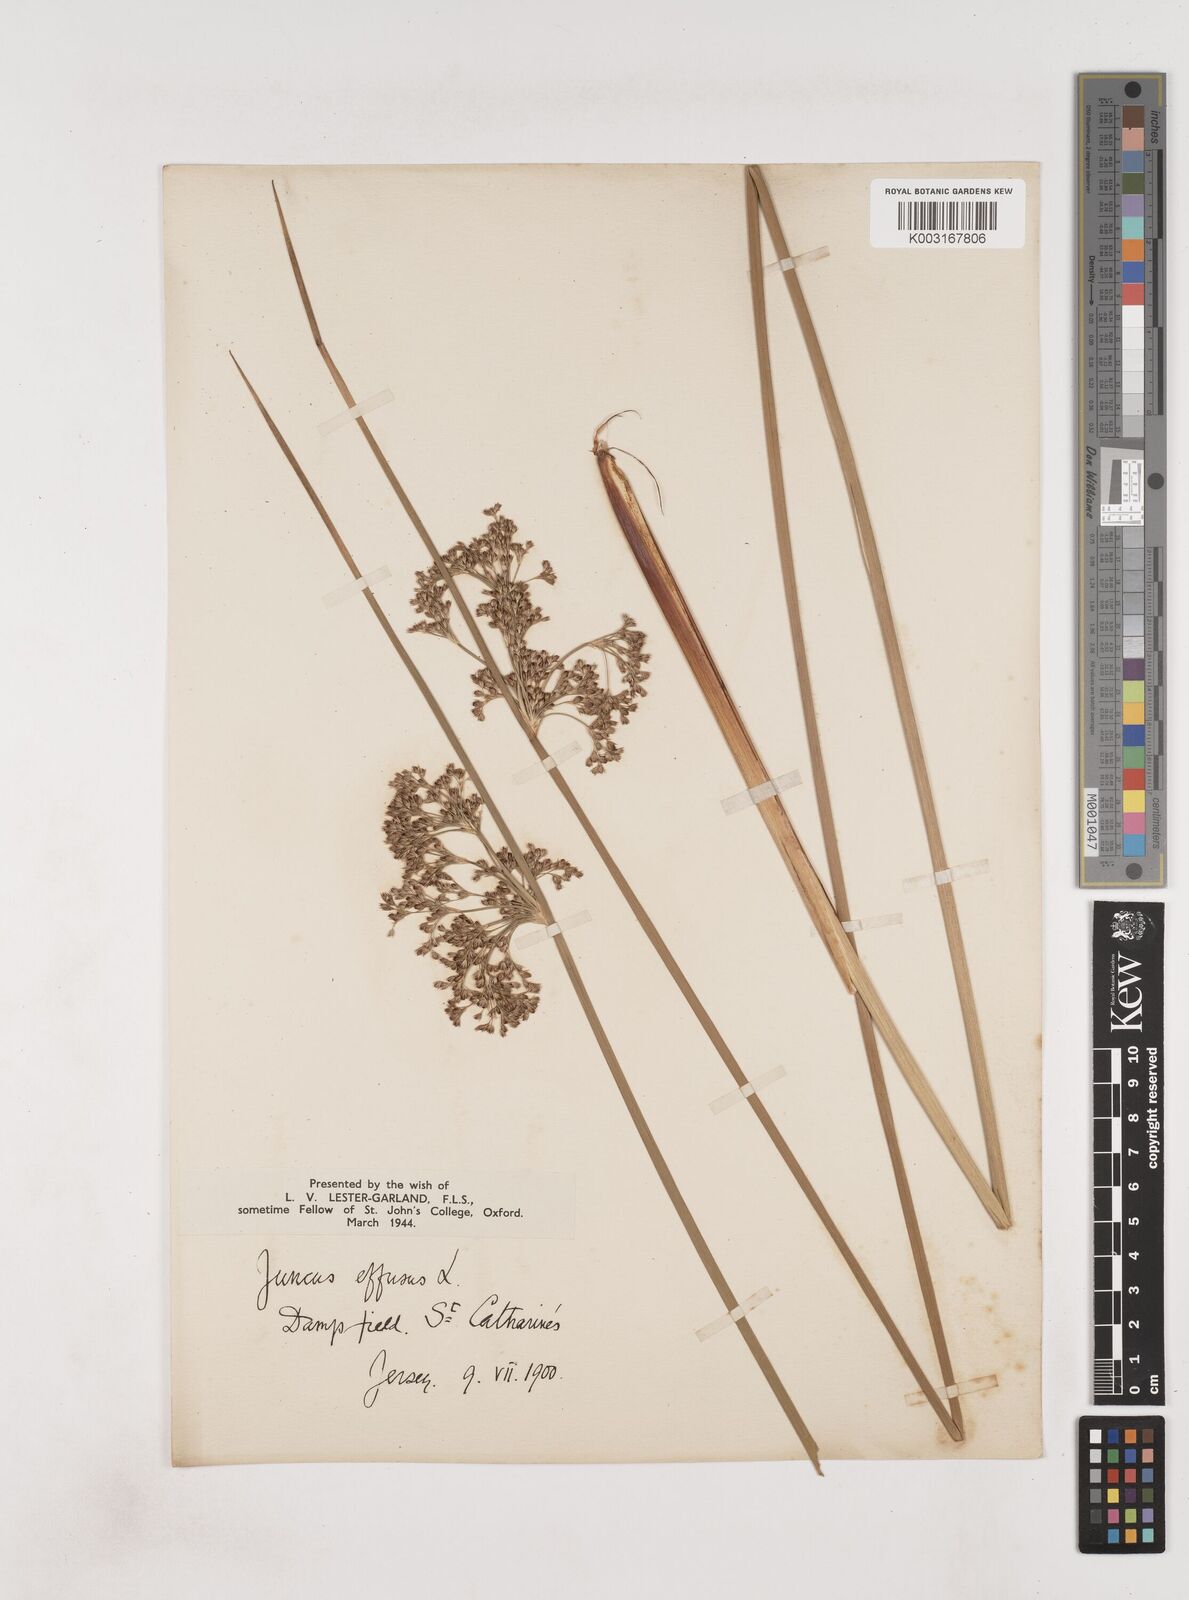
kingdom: Plantae
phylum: Tracheophyta
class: Liliopsida
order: Poales
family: Juncaceae
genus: Juncus
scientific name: Juncus effusus
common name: Soft rush
